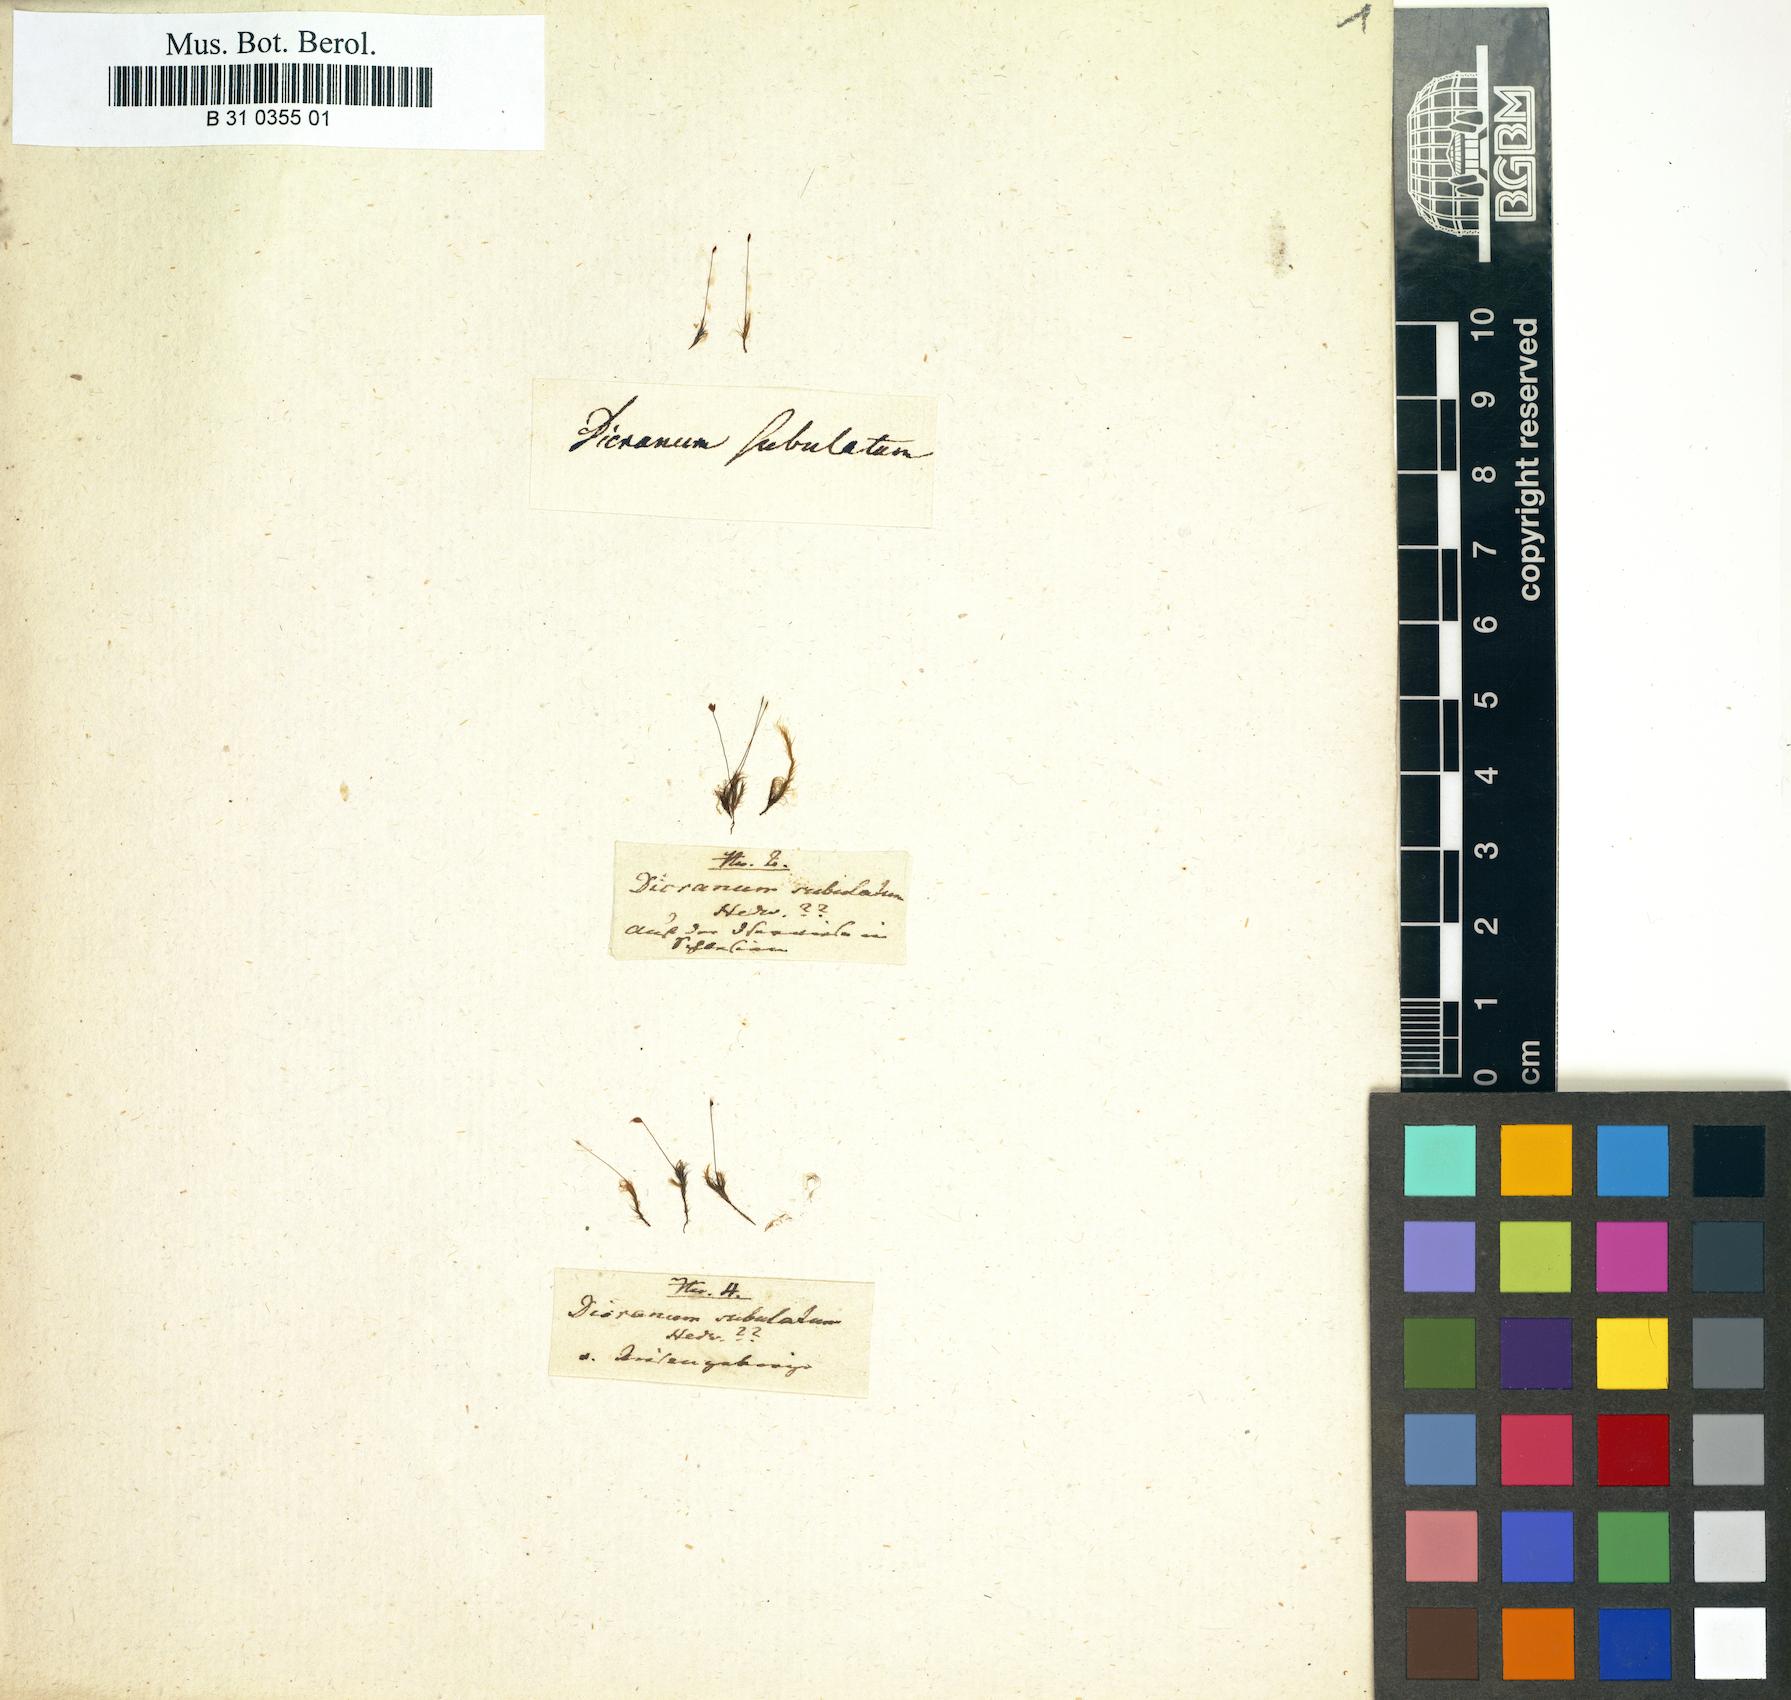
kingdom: Plantae
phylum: Bryophyta
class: Bryopsida
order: Dicranales
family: Dicranellaceae
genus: Dicranella
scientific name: Dicranella subulata
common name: Awl-leaved forklet moss
